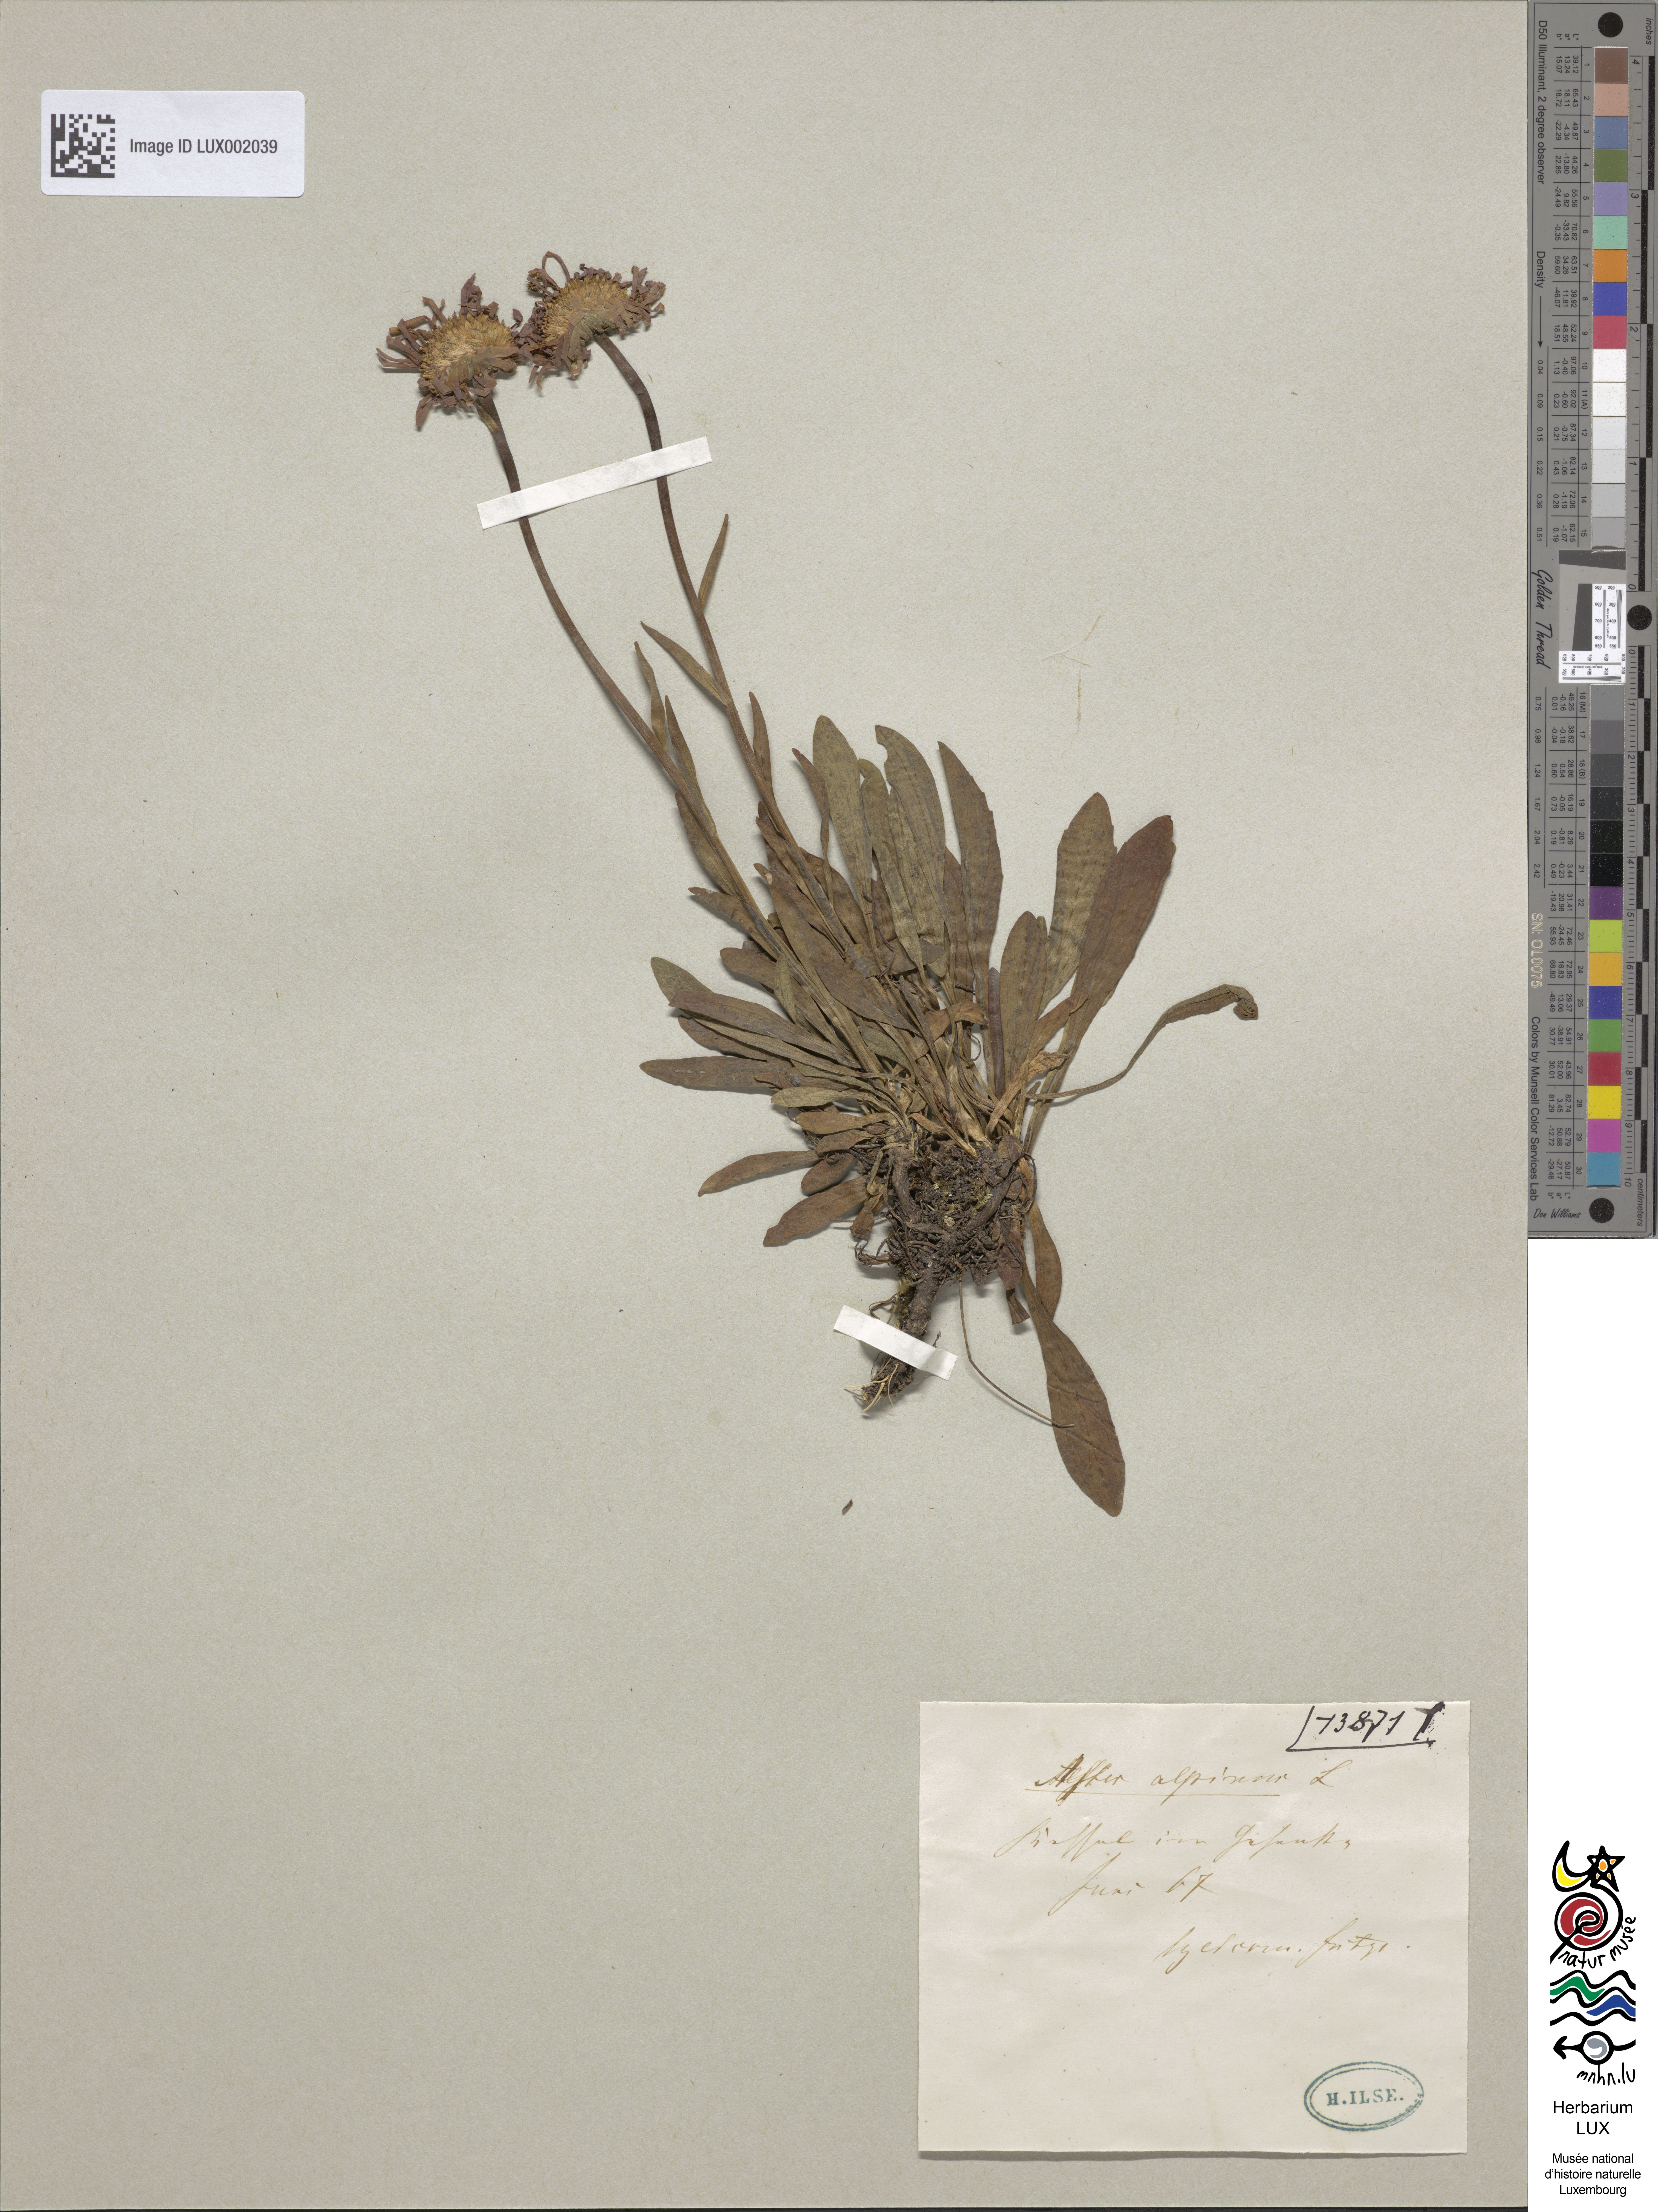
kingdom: Plantae
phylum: Tracheophyta
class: Magnoliopsida
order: Asterales
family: Asteraceae
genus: Aster
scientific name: Aster alpinus
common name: Alpine aster
